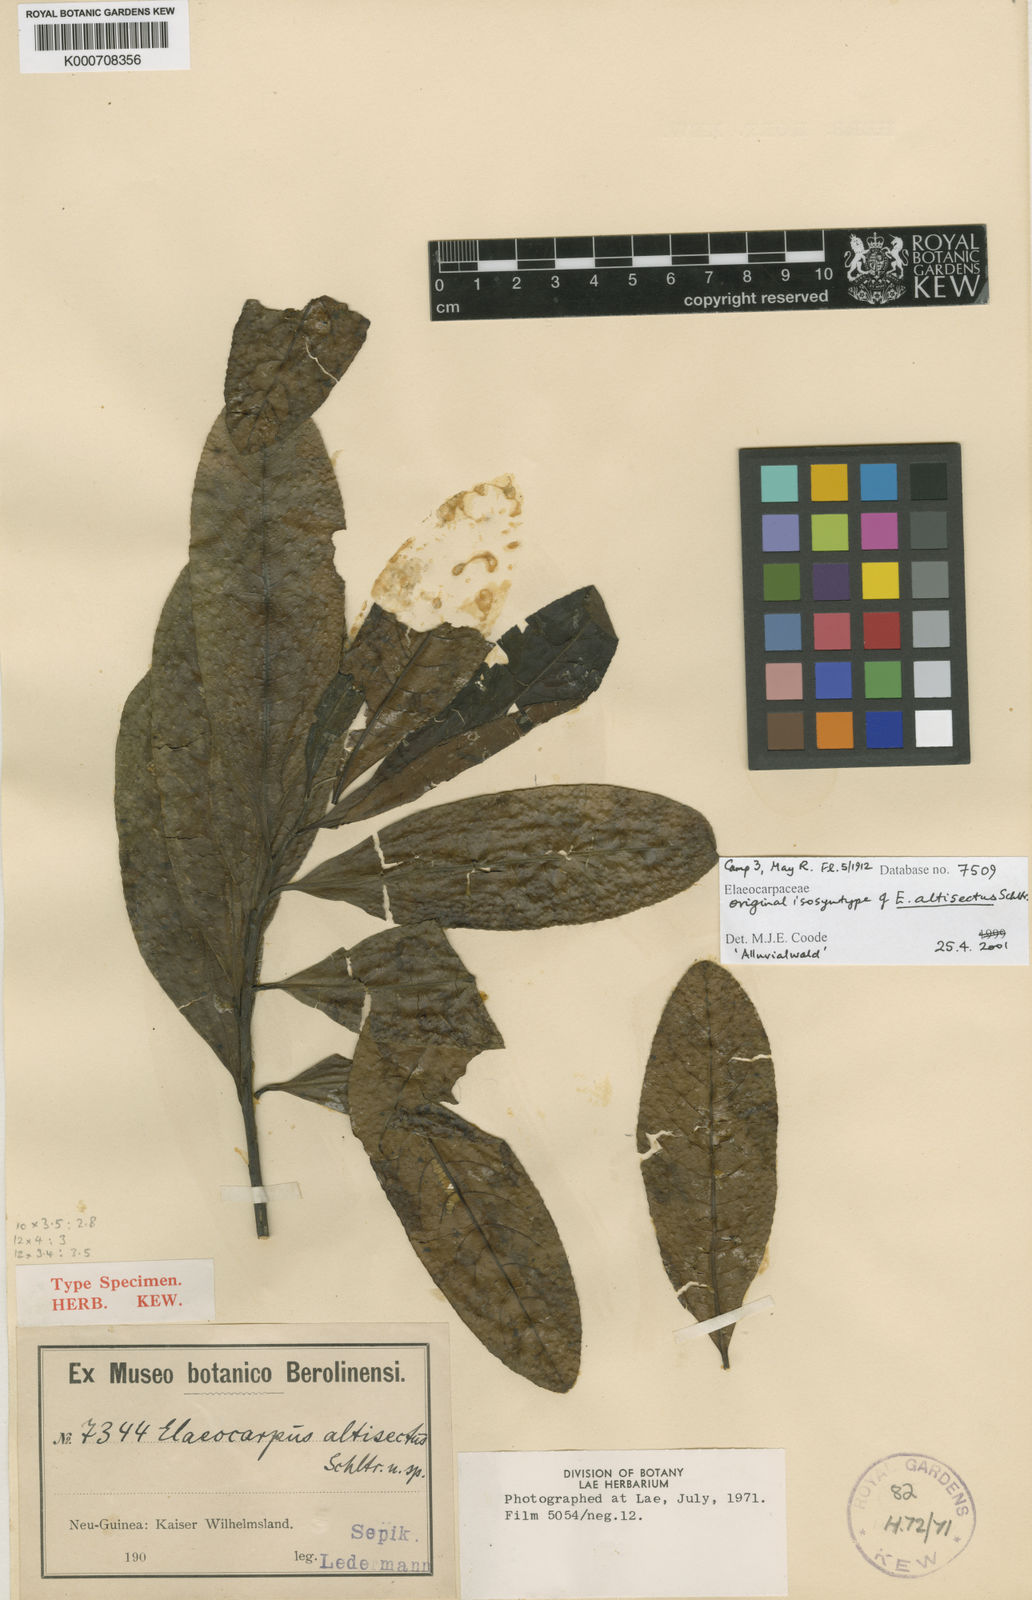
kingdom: Plantae
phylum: Tracheophyta
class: Magnoliopsida
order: Oxalidales
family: Elaeocarpaceae
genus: Elaeocarpus
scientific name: Elaeocarpus altisectus
